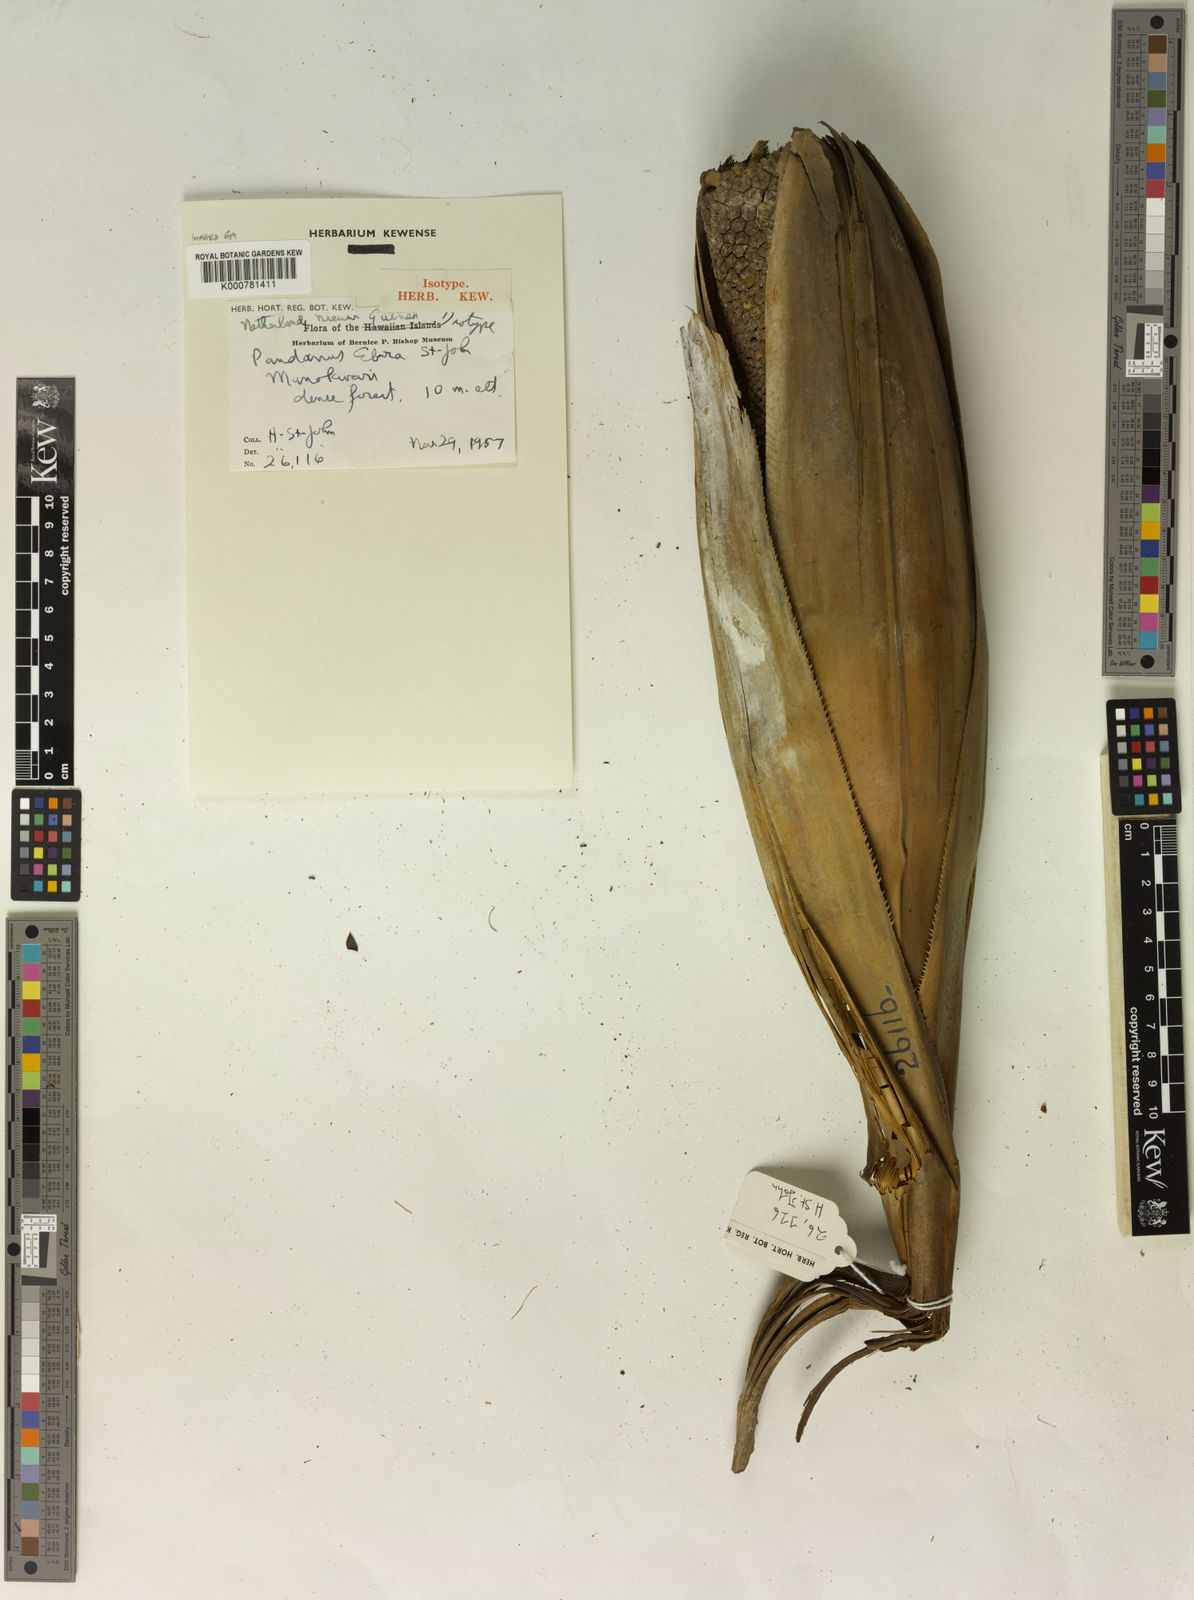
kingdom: Plantae
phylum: Tracheophyta
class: Liliopsida
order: Pandanales
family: Pandanaceae
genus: Pandanus
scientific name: Pandanus
